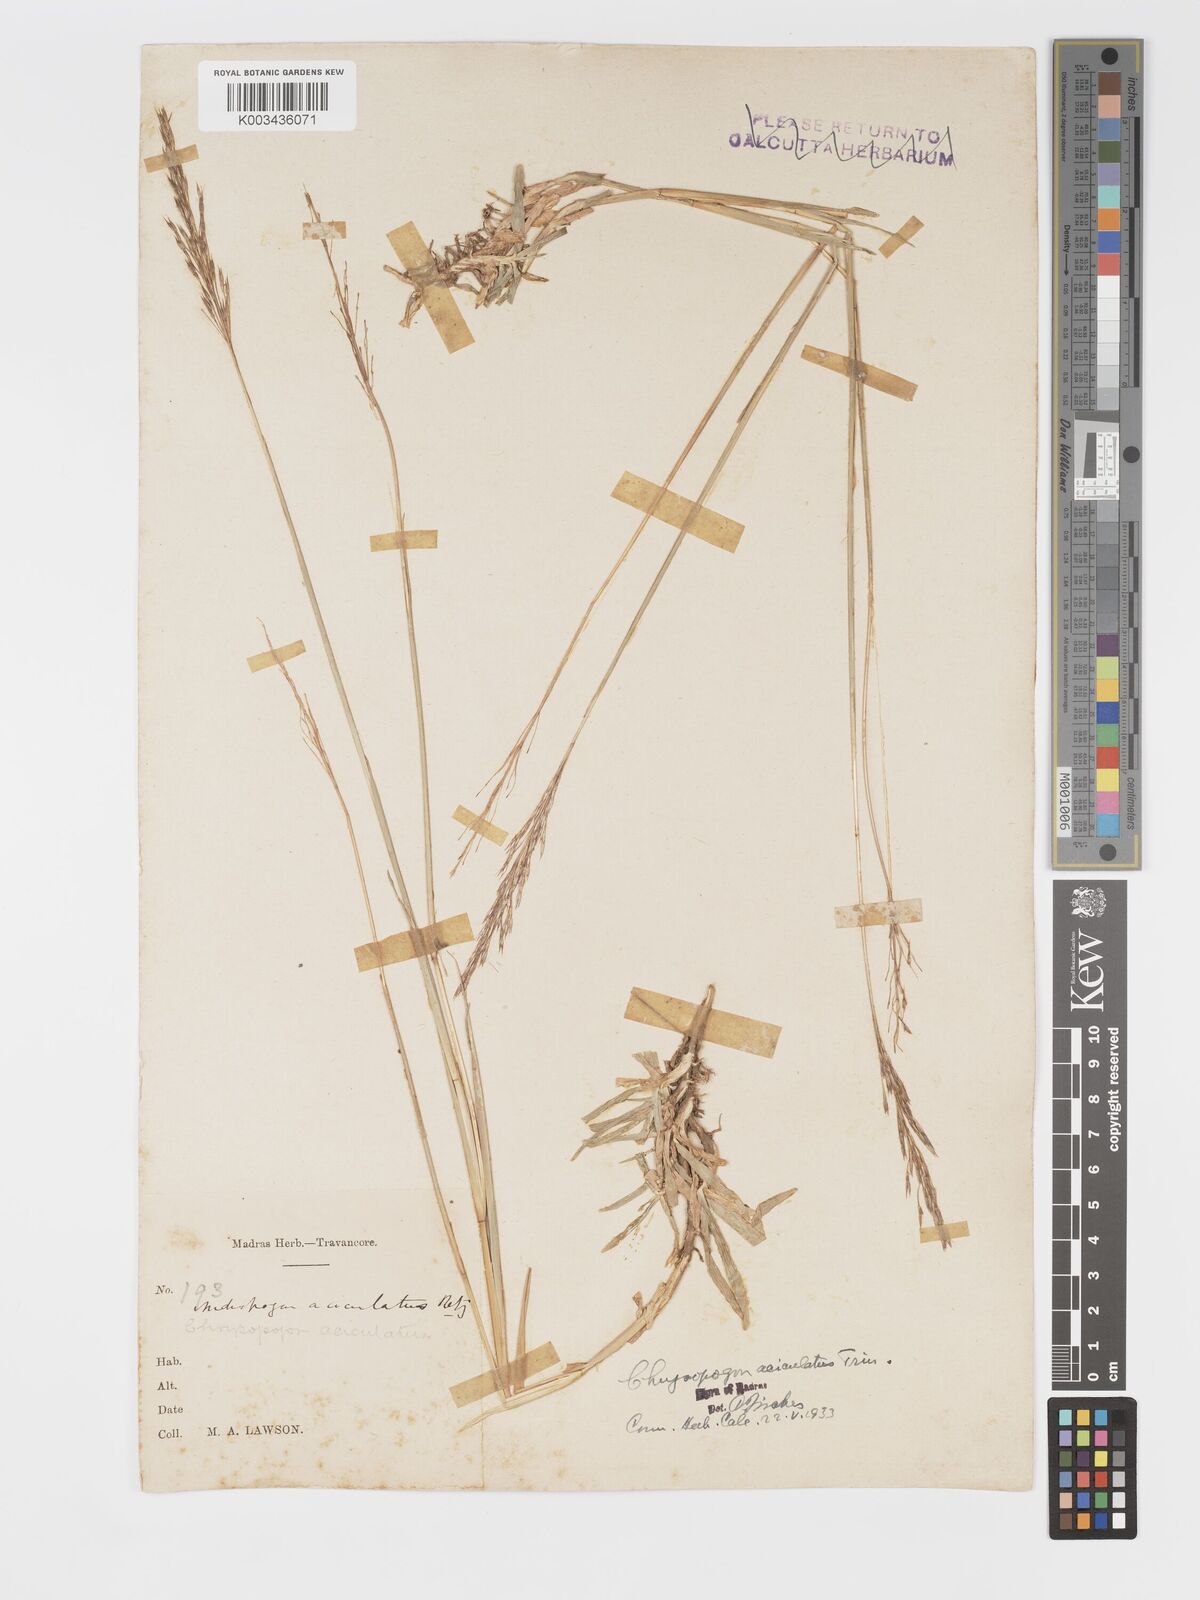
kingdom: Plantae
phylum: Tracheophyta
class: Liliopsida
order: Poales
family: Poaceae
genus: Chrysopogon
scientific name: Chrysopogon aciculatus
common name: Pilipiliula
